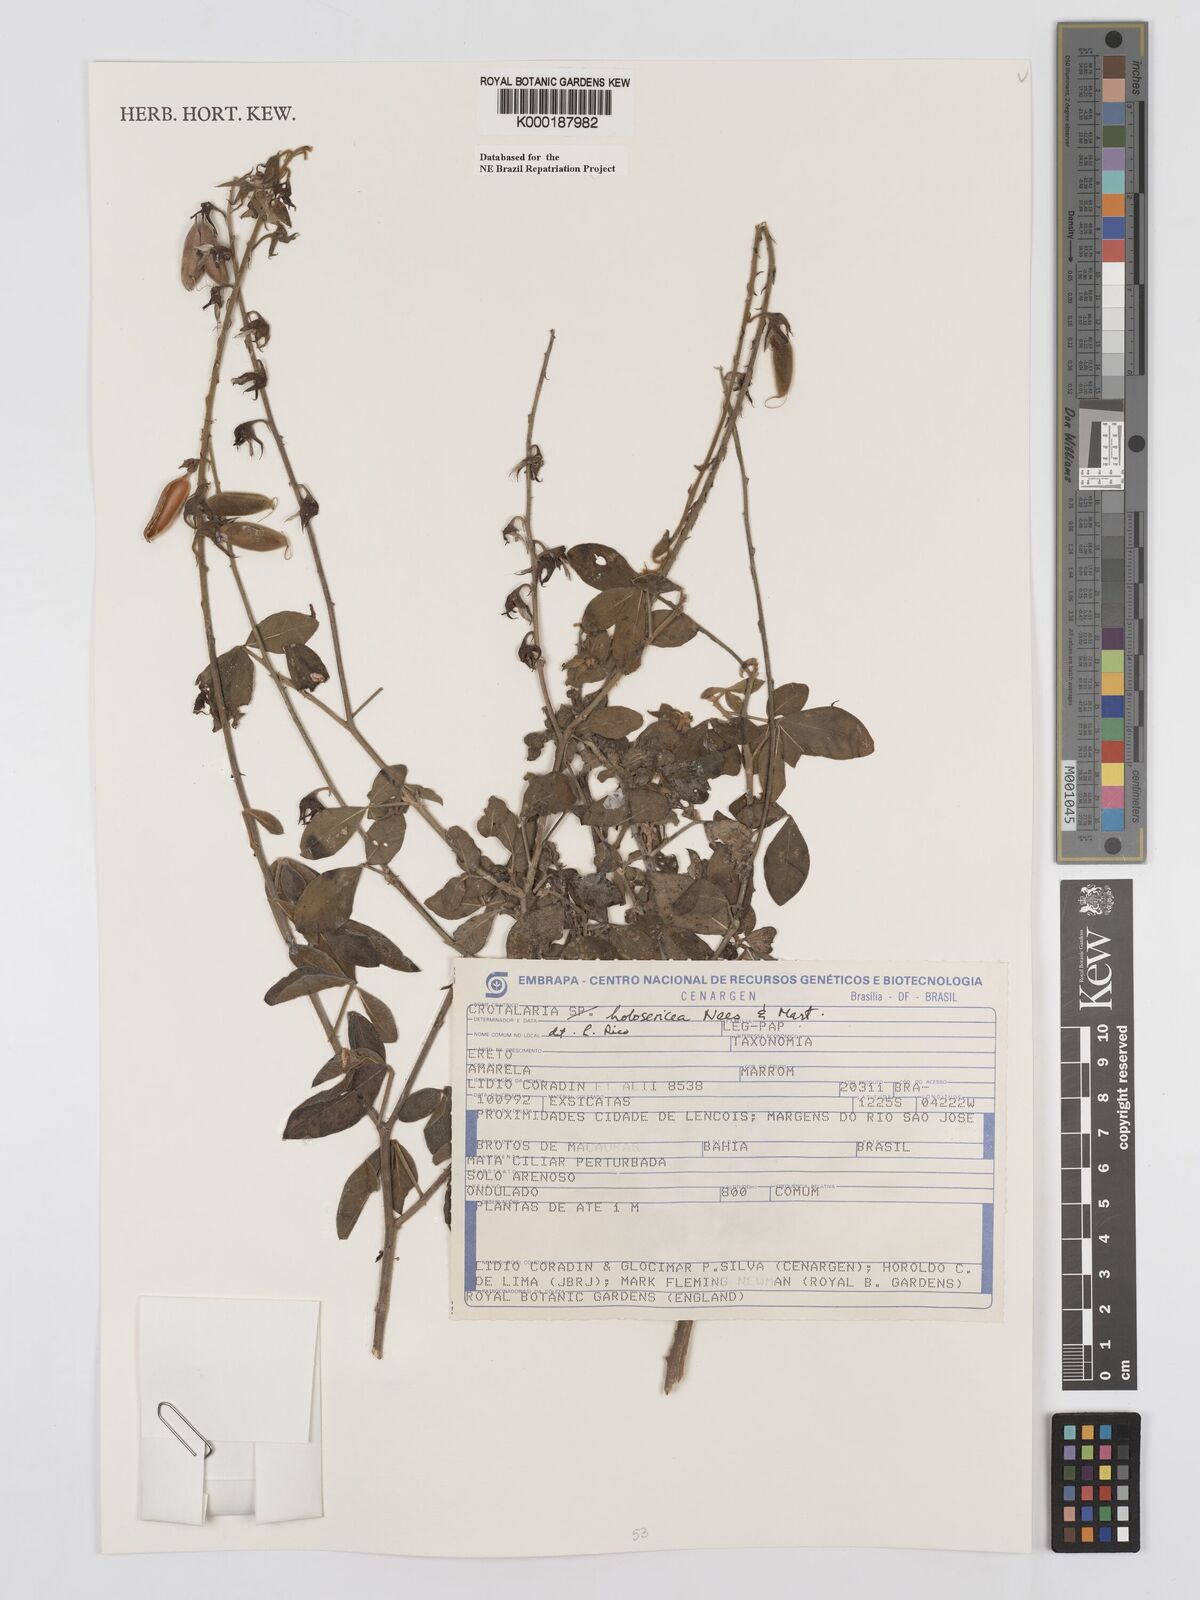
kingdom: Plantae
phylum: Tracheophyta
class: Magnoliopsida
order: Fabales
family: Fabaceae
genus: Crotalaria
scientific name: Crotalaria holosericea
